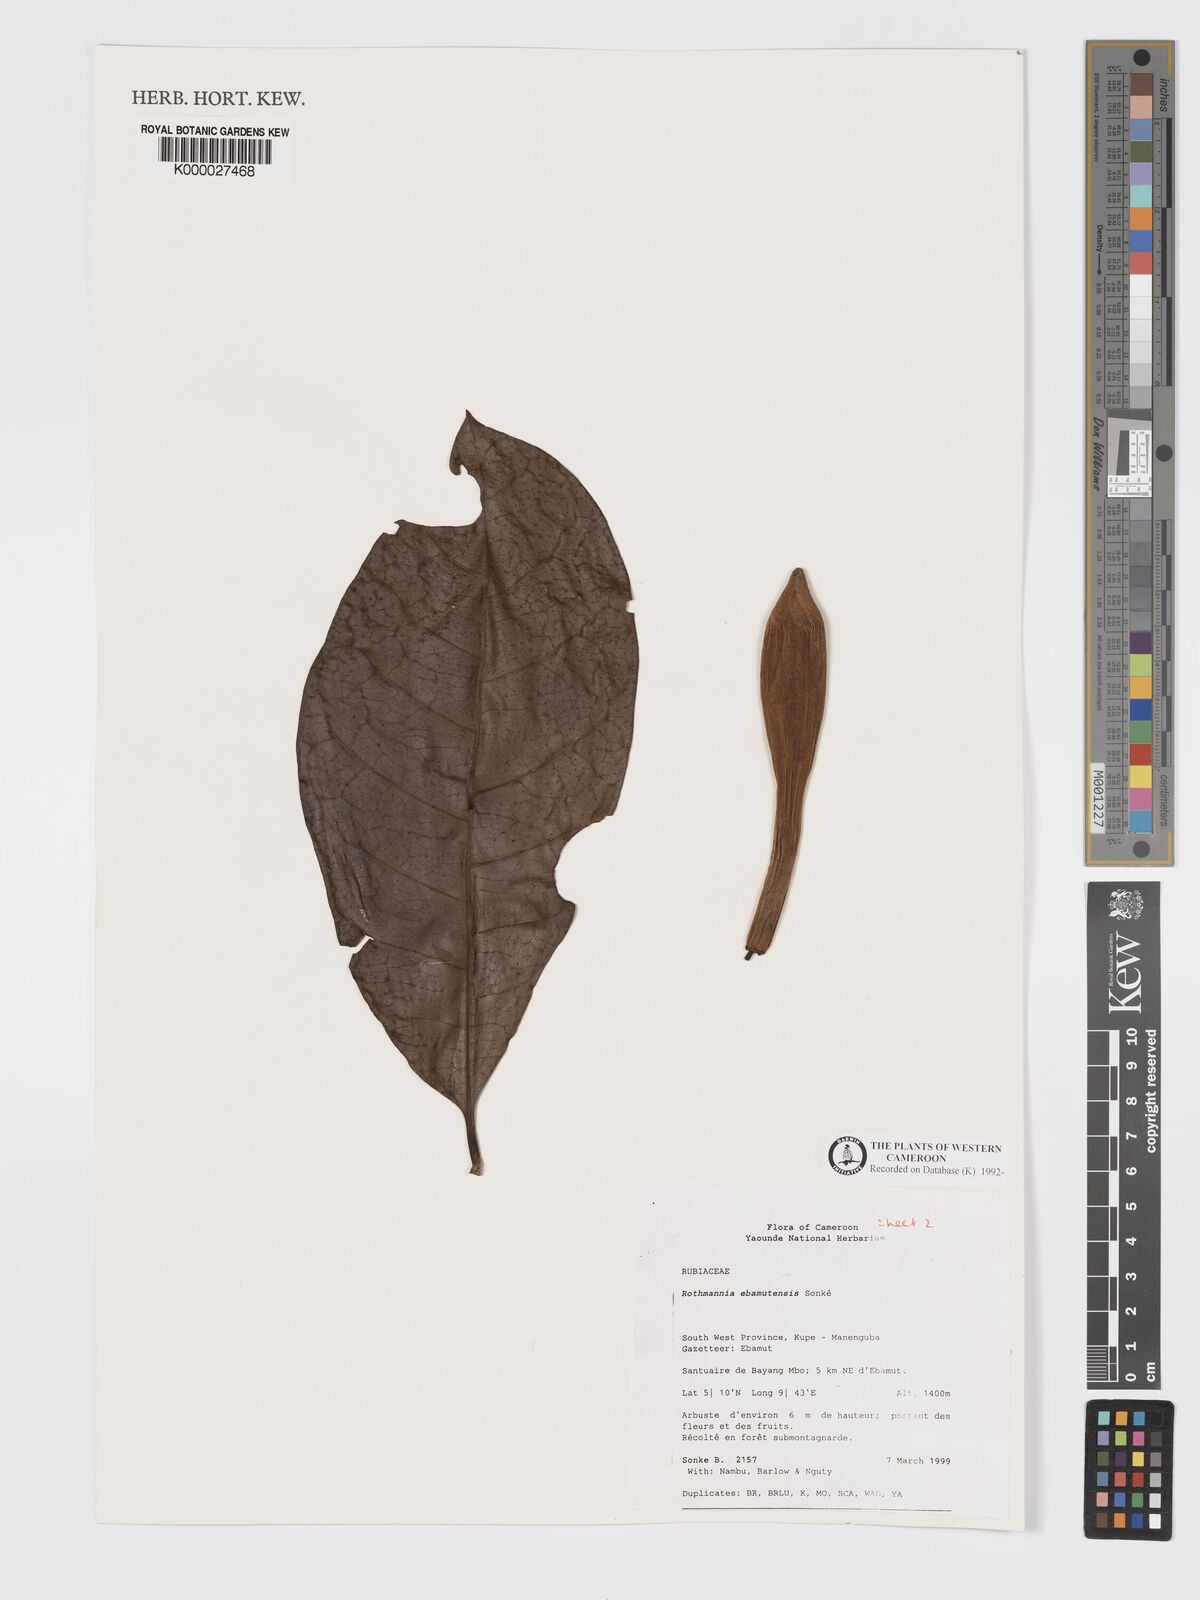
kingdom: Plantae
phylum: Tracheophyta
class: Magnoliopsida
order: Gentianales
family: Rubiaceae
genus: Rothmannia
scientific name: Rothmannia
